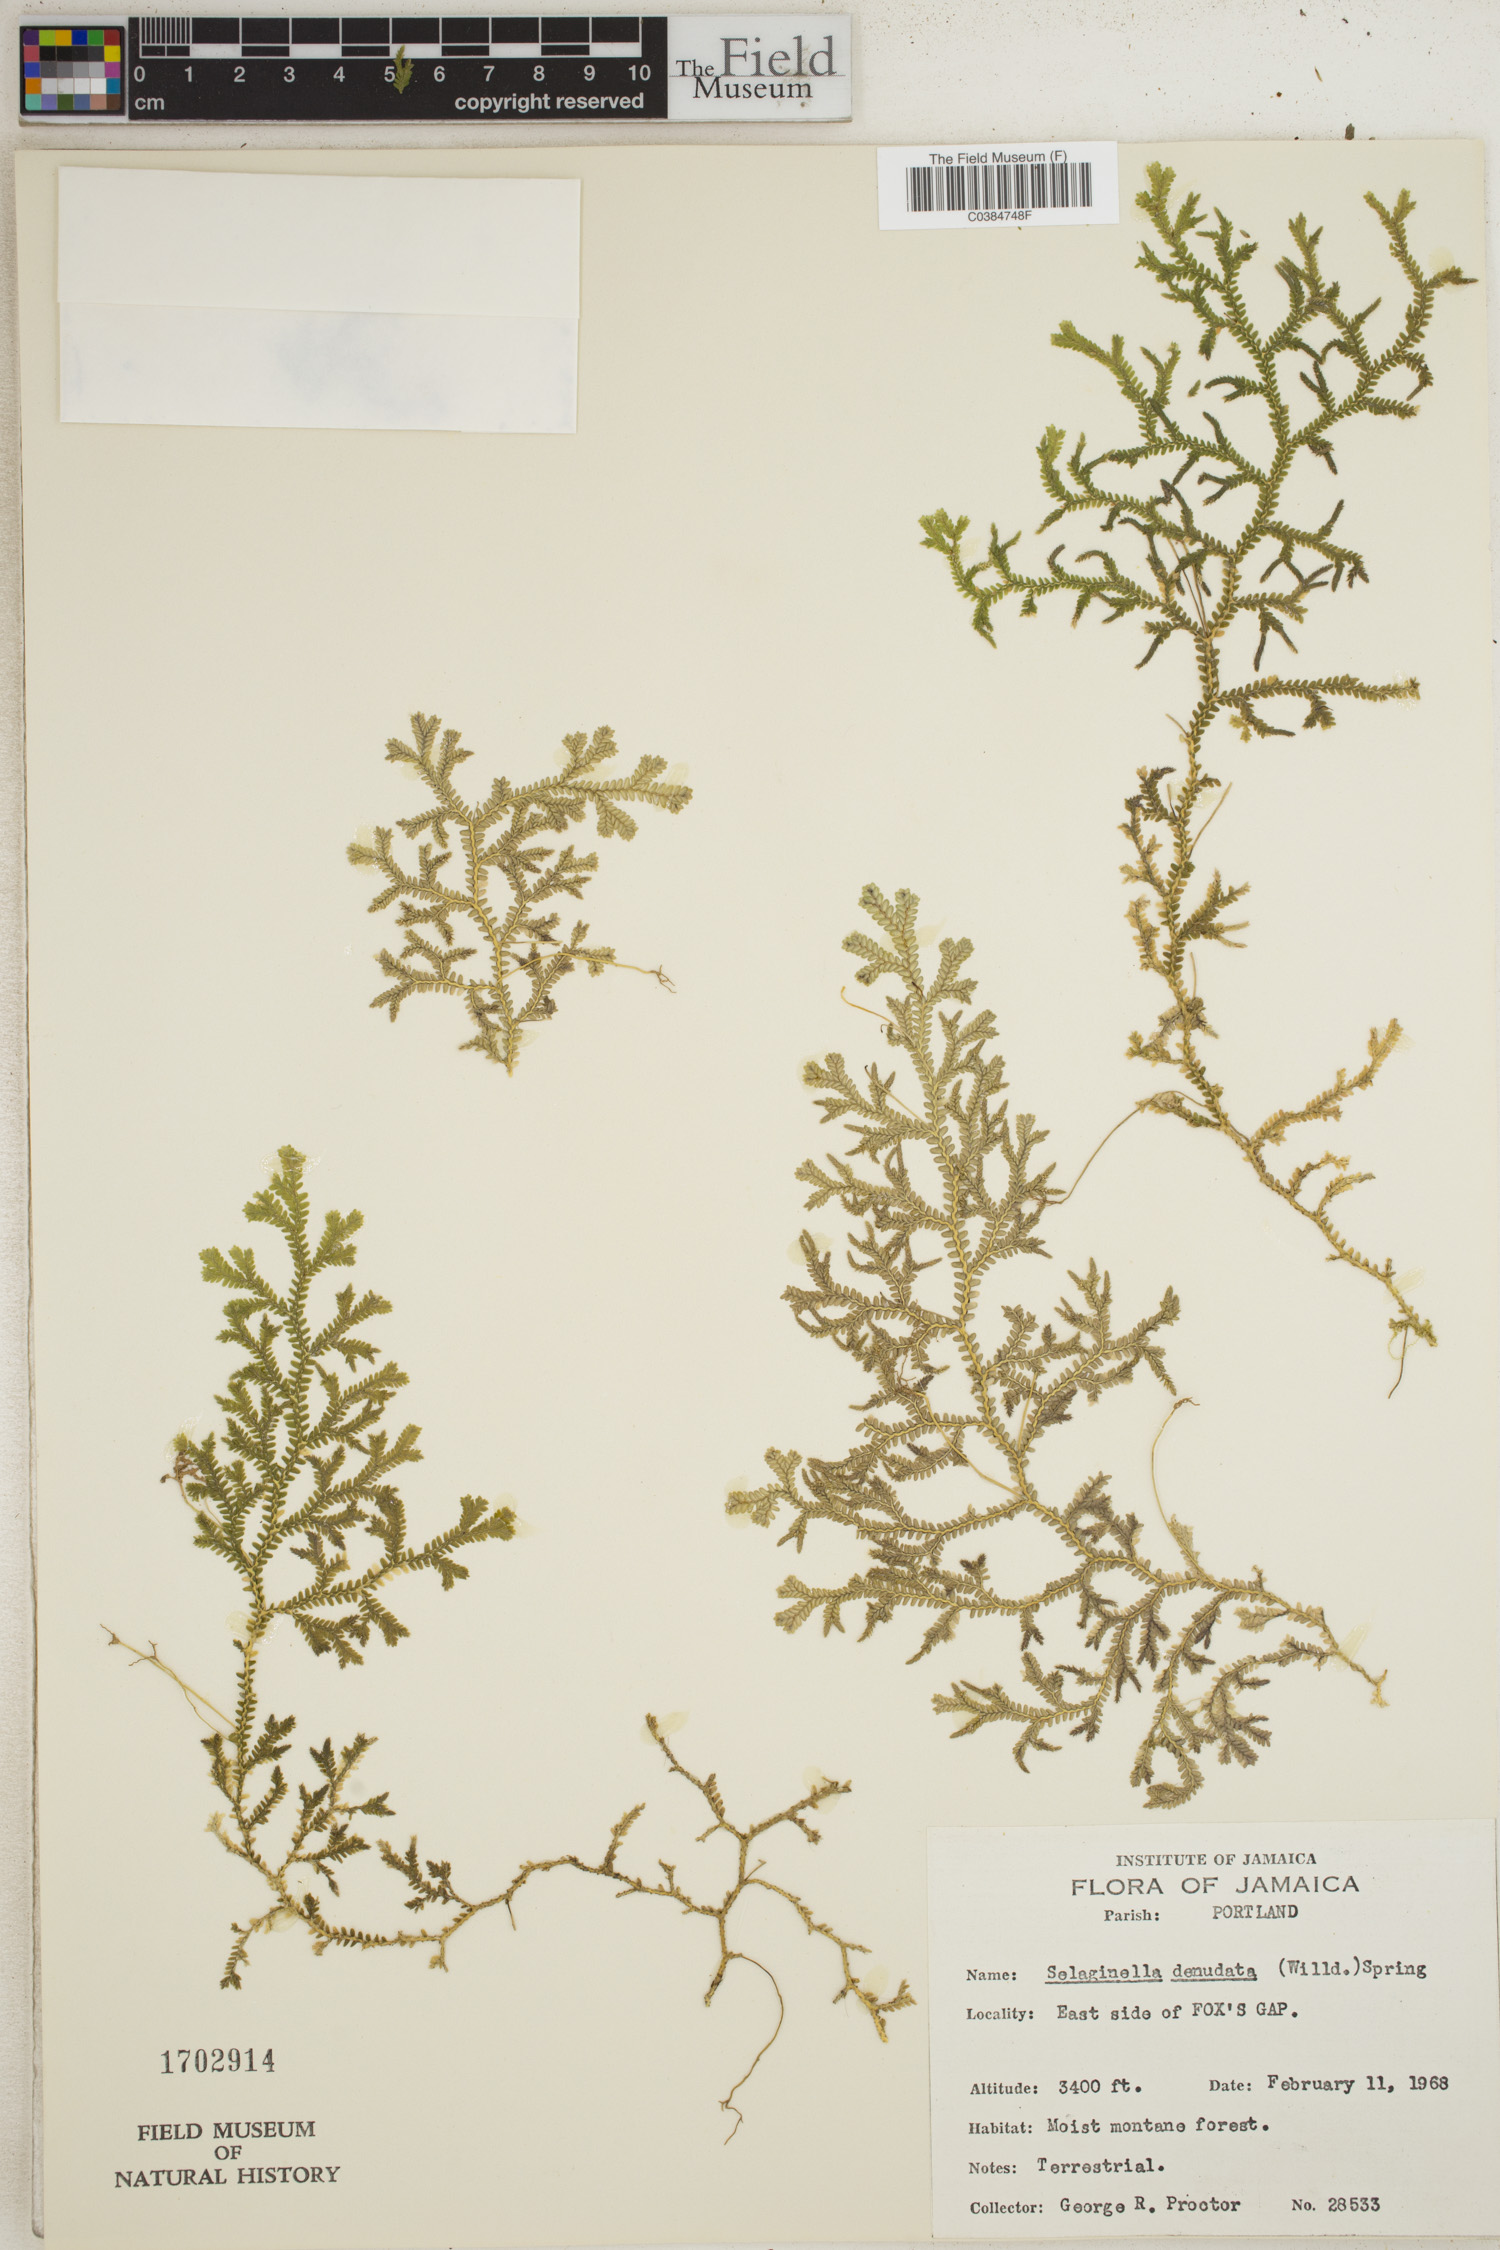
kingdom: Plantae
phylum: Tracheophyta
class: Lycopodiopsida
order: Selaginellales
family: Selaginellaceae
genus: Selaginella
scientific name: Selaginella denudata
